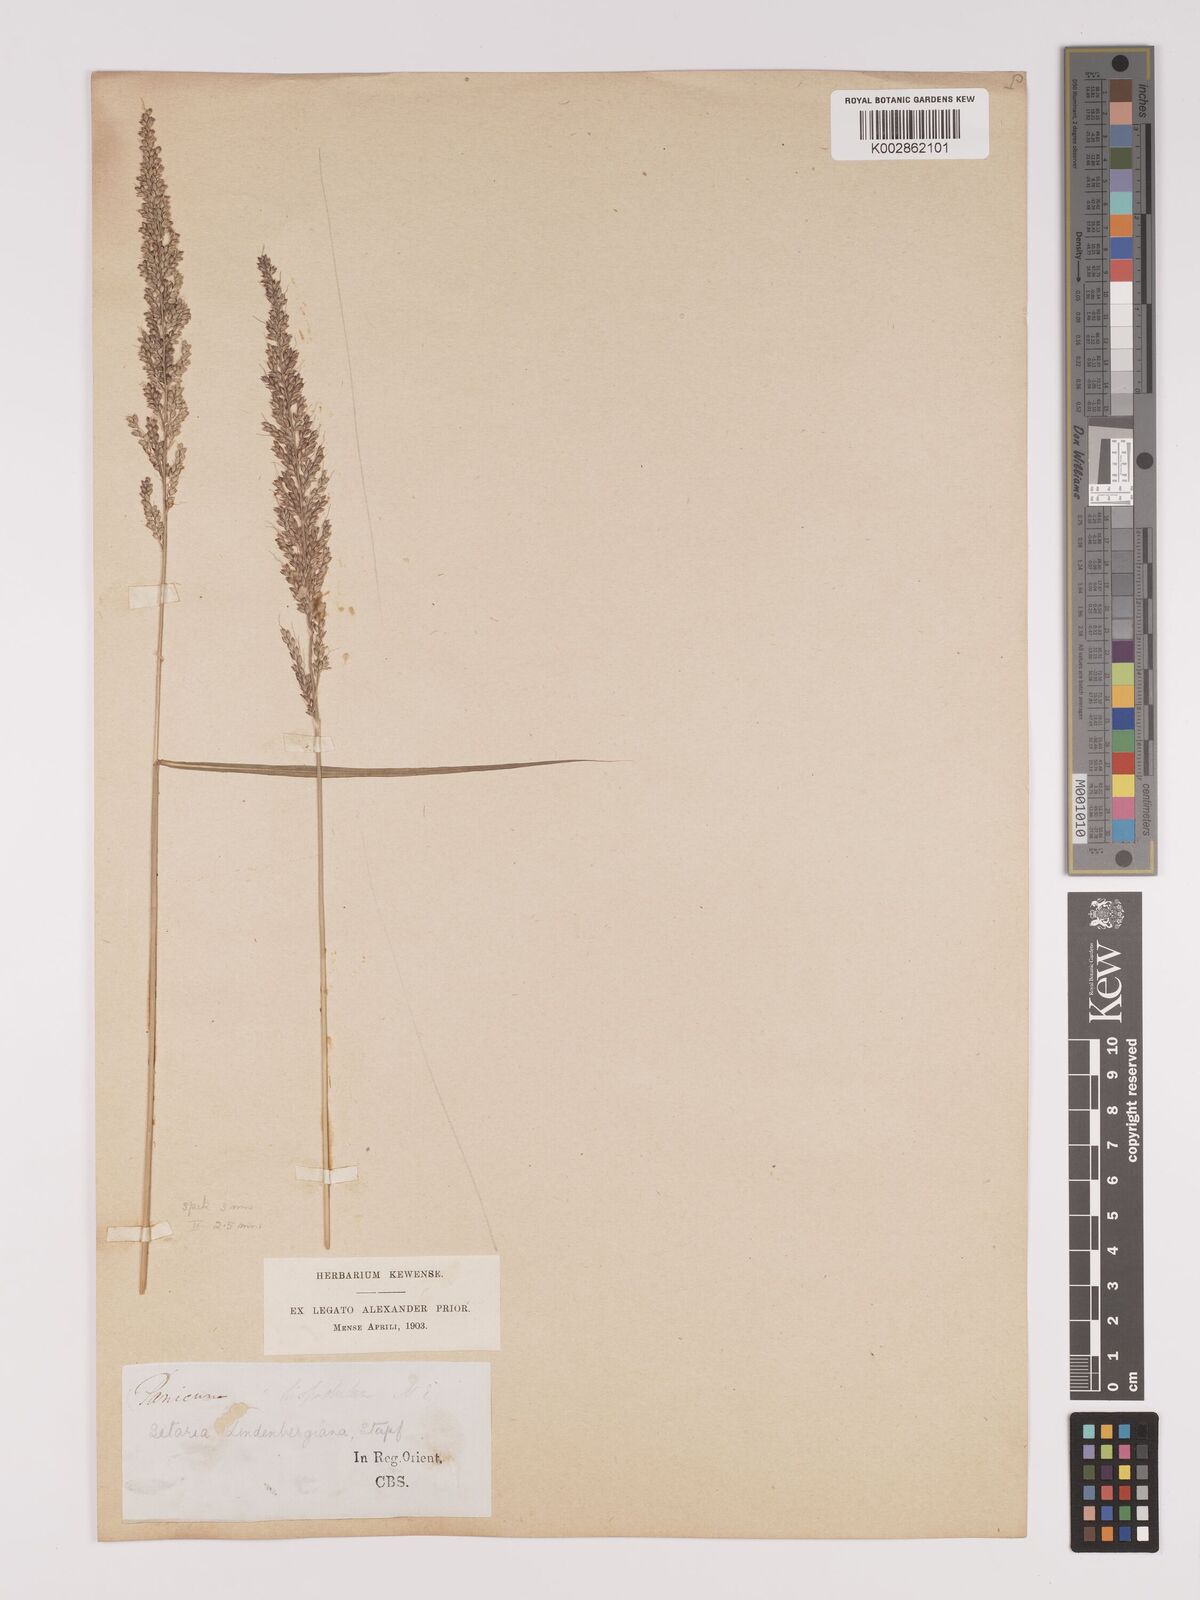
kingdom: Plantae
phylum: Tracheophyta
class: Liliopsida
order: Poales
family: Poaceae
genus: Setaria
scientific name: Setaria lindenbergiana
